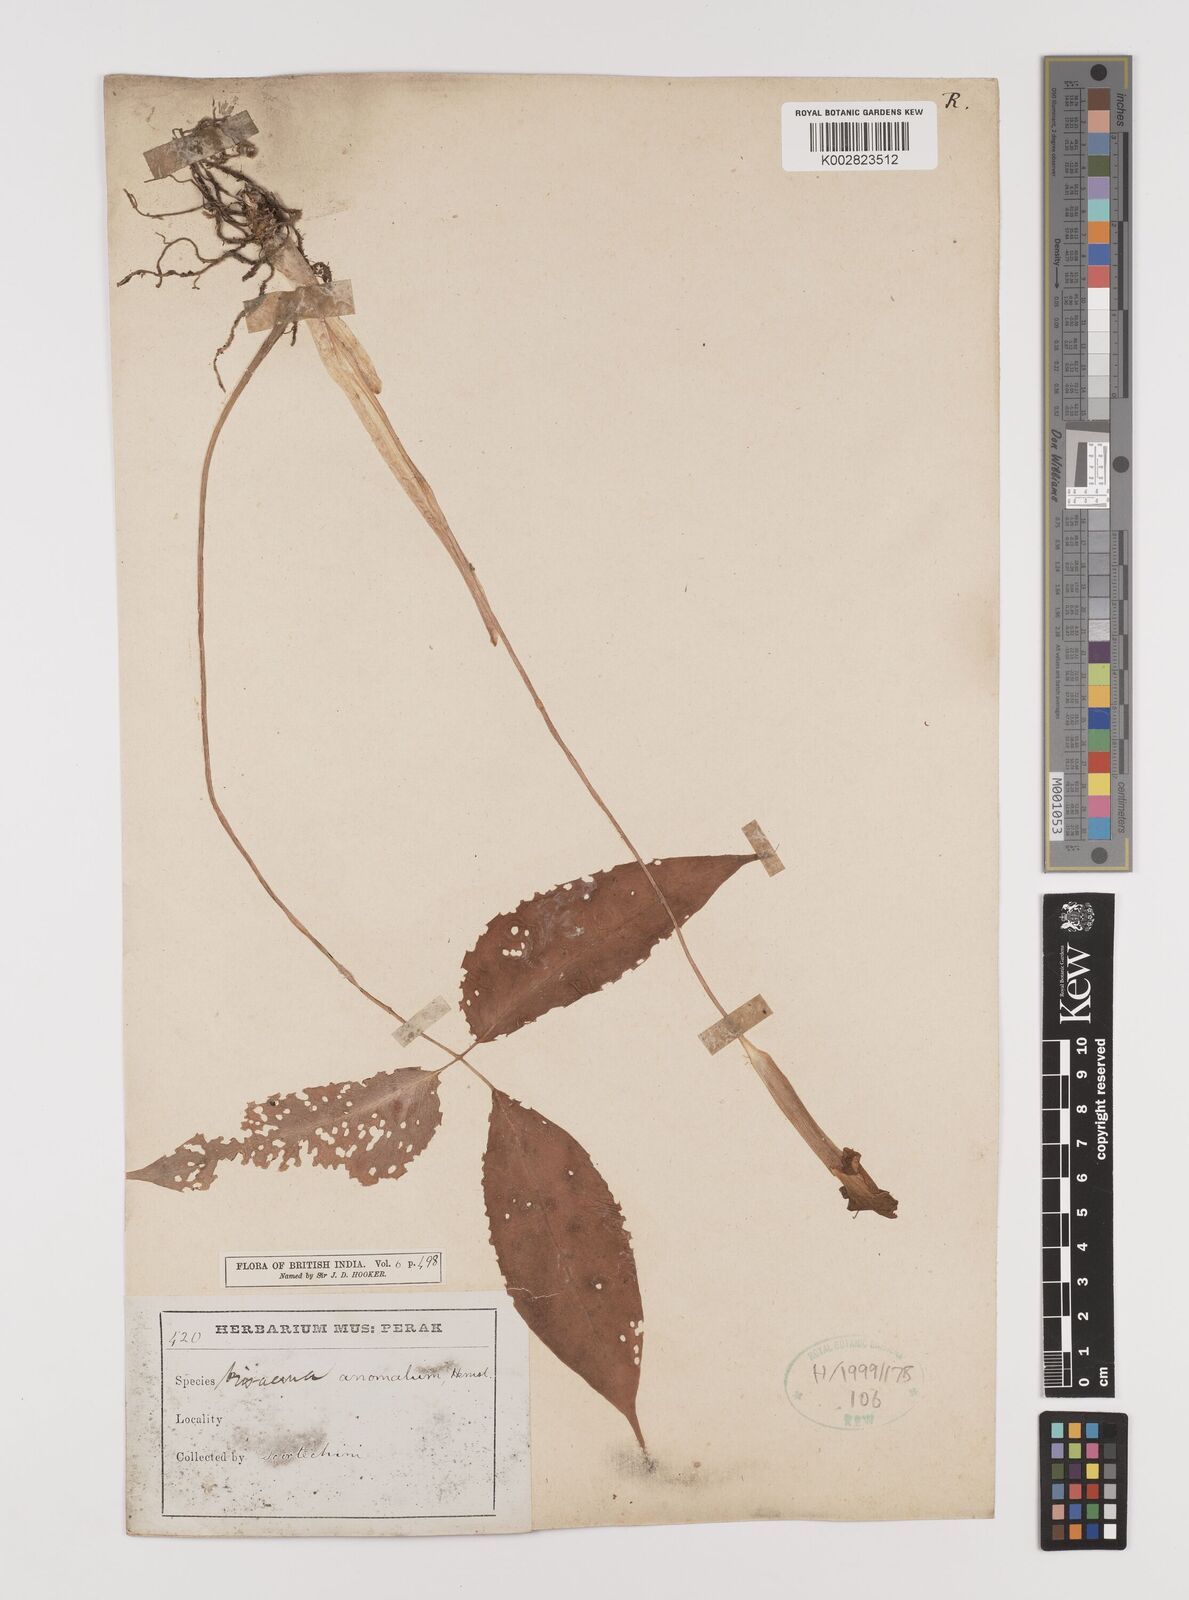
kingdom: Plantae
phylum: Tracheophyta
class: Liliopsida
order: Alismatales
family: Araceae
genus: Arisaema
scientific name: Arisaema anomalum
